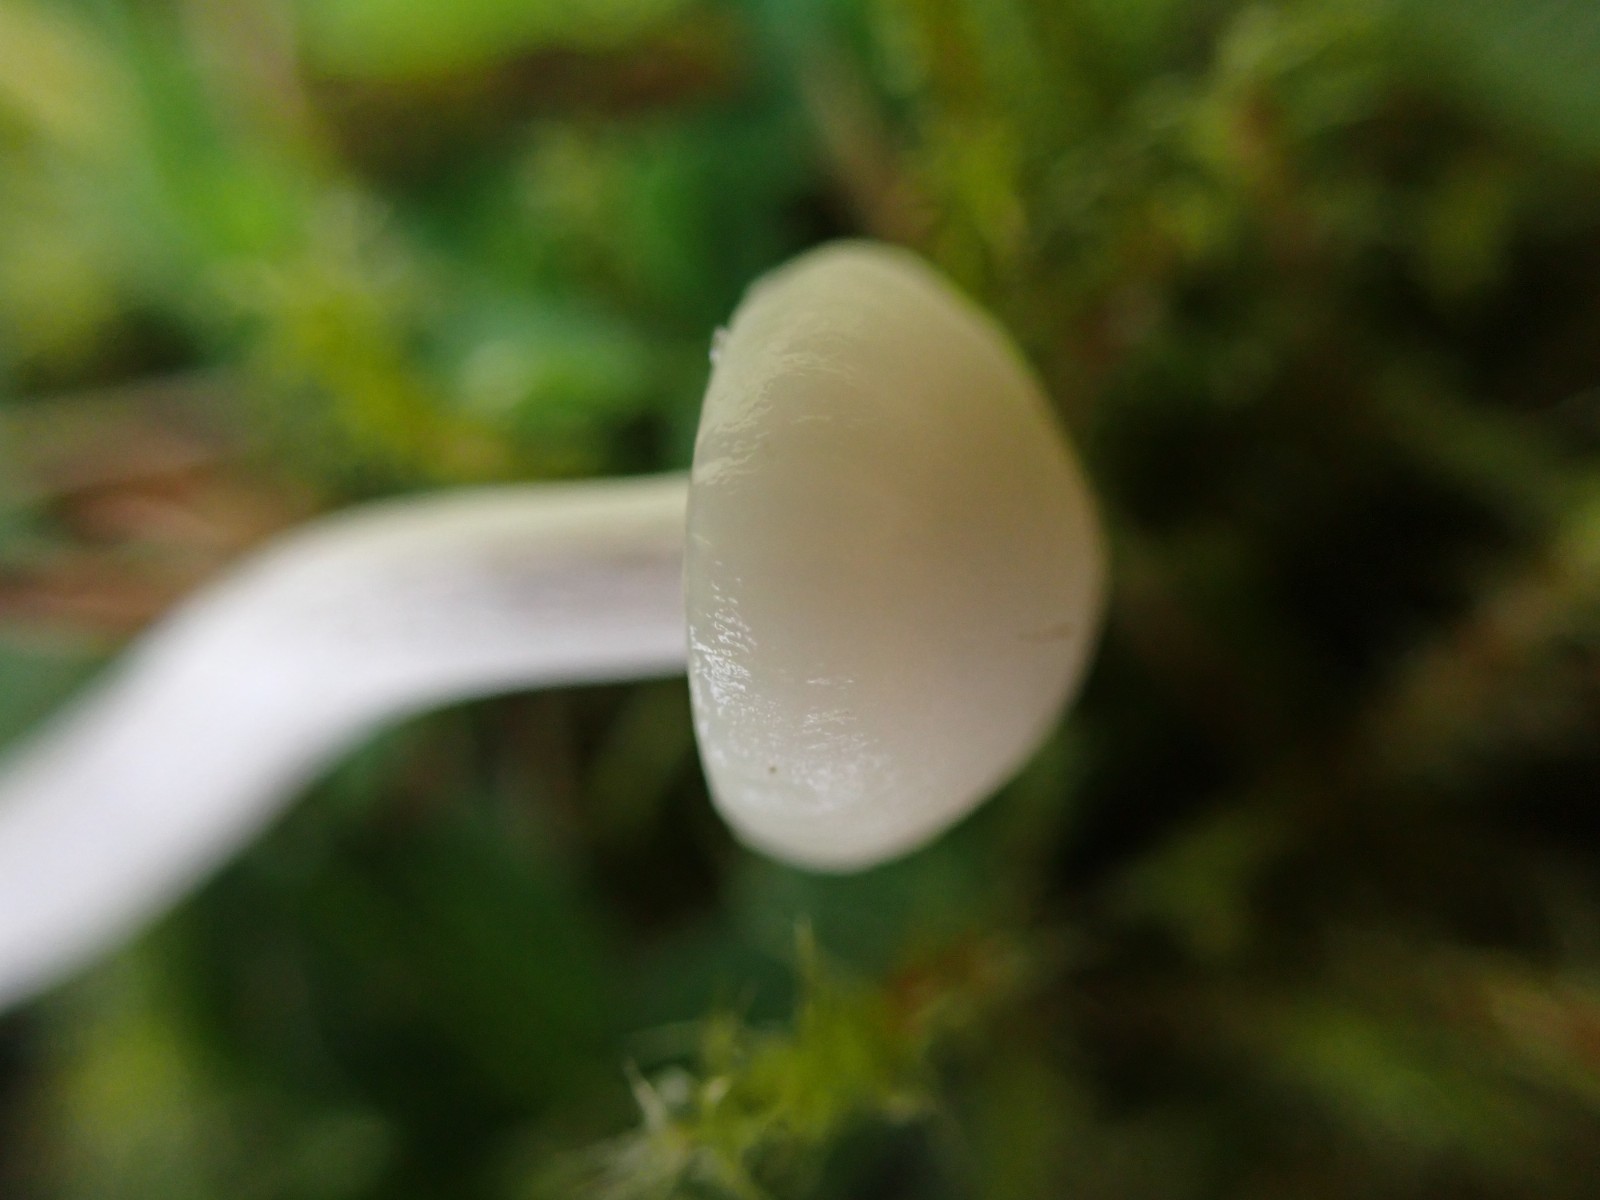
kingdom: Fungi
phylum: Basidiomycota
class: Agaricomycetes
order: Agaricales
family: Hygrophoraceae
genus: Cuphophyllus
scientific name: Cuphophyllus
